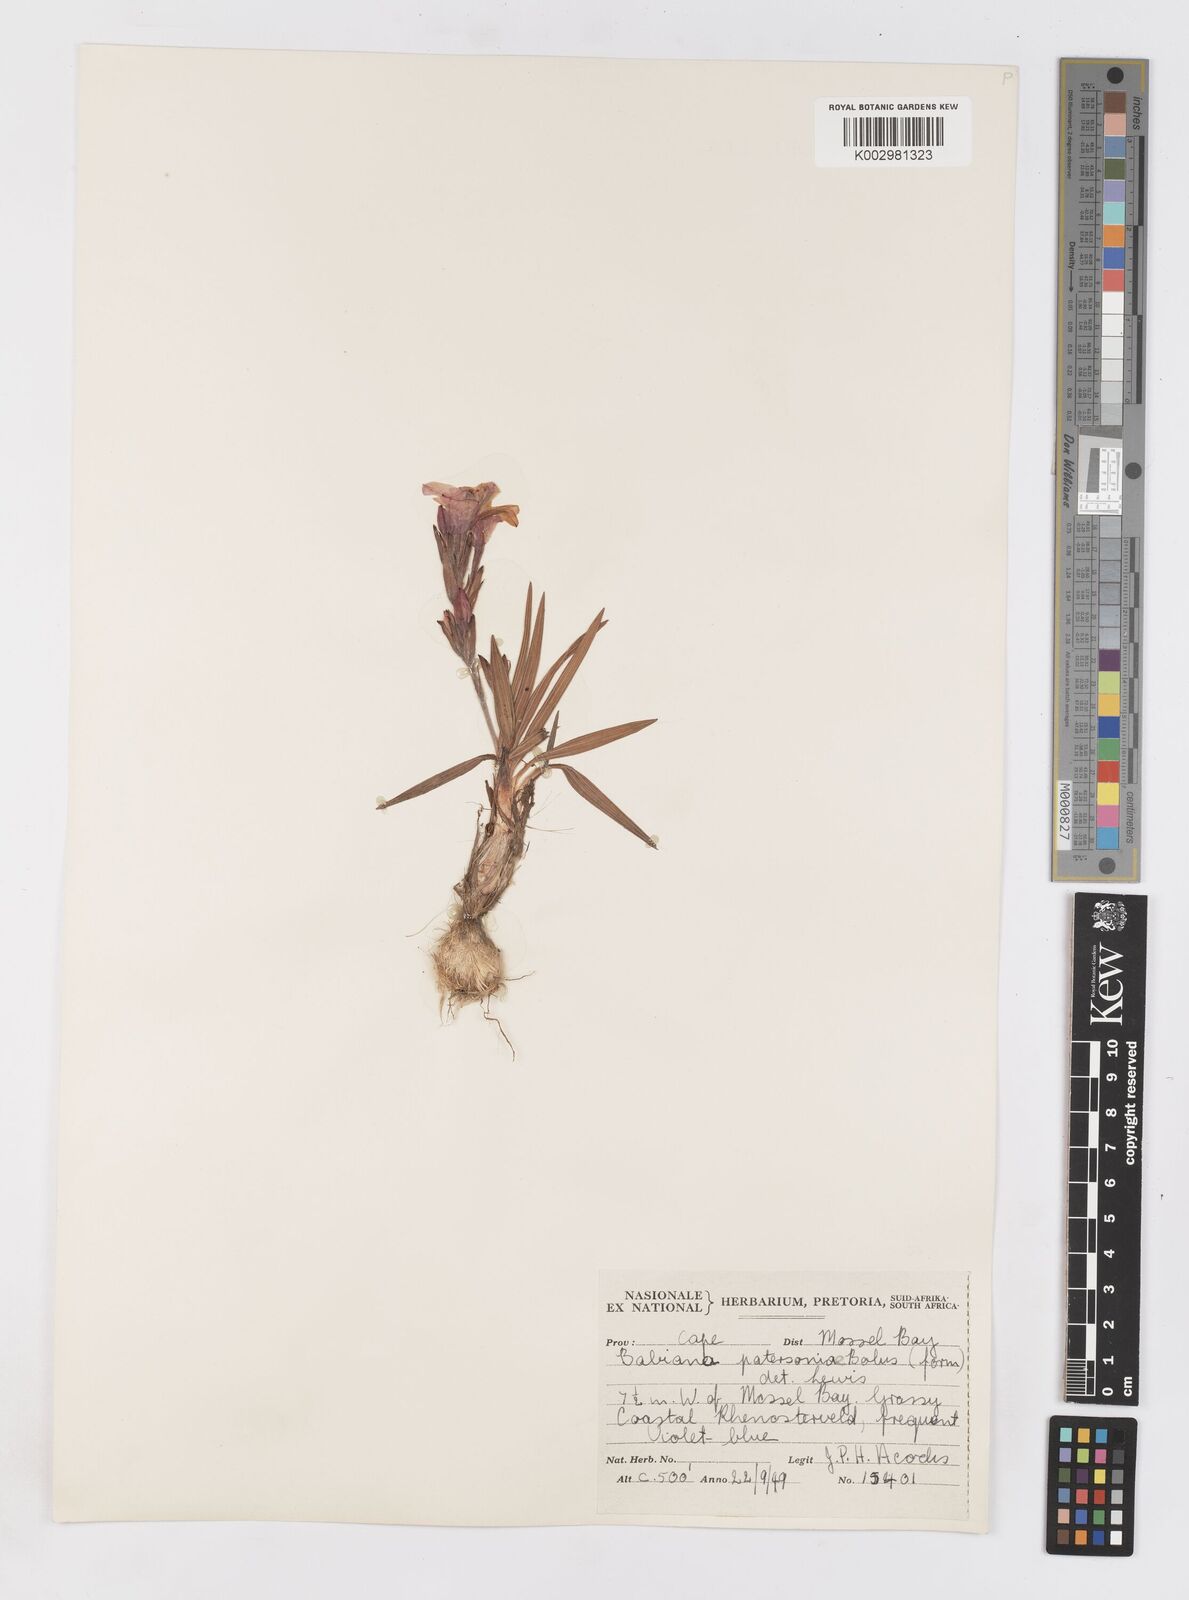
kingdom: Plantae
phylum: Tracheophyta
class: Liliopsida
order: Asparagales
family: Iridaceae
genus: Babiana
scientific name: Babiana patersoniae
